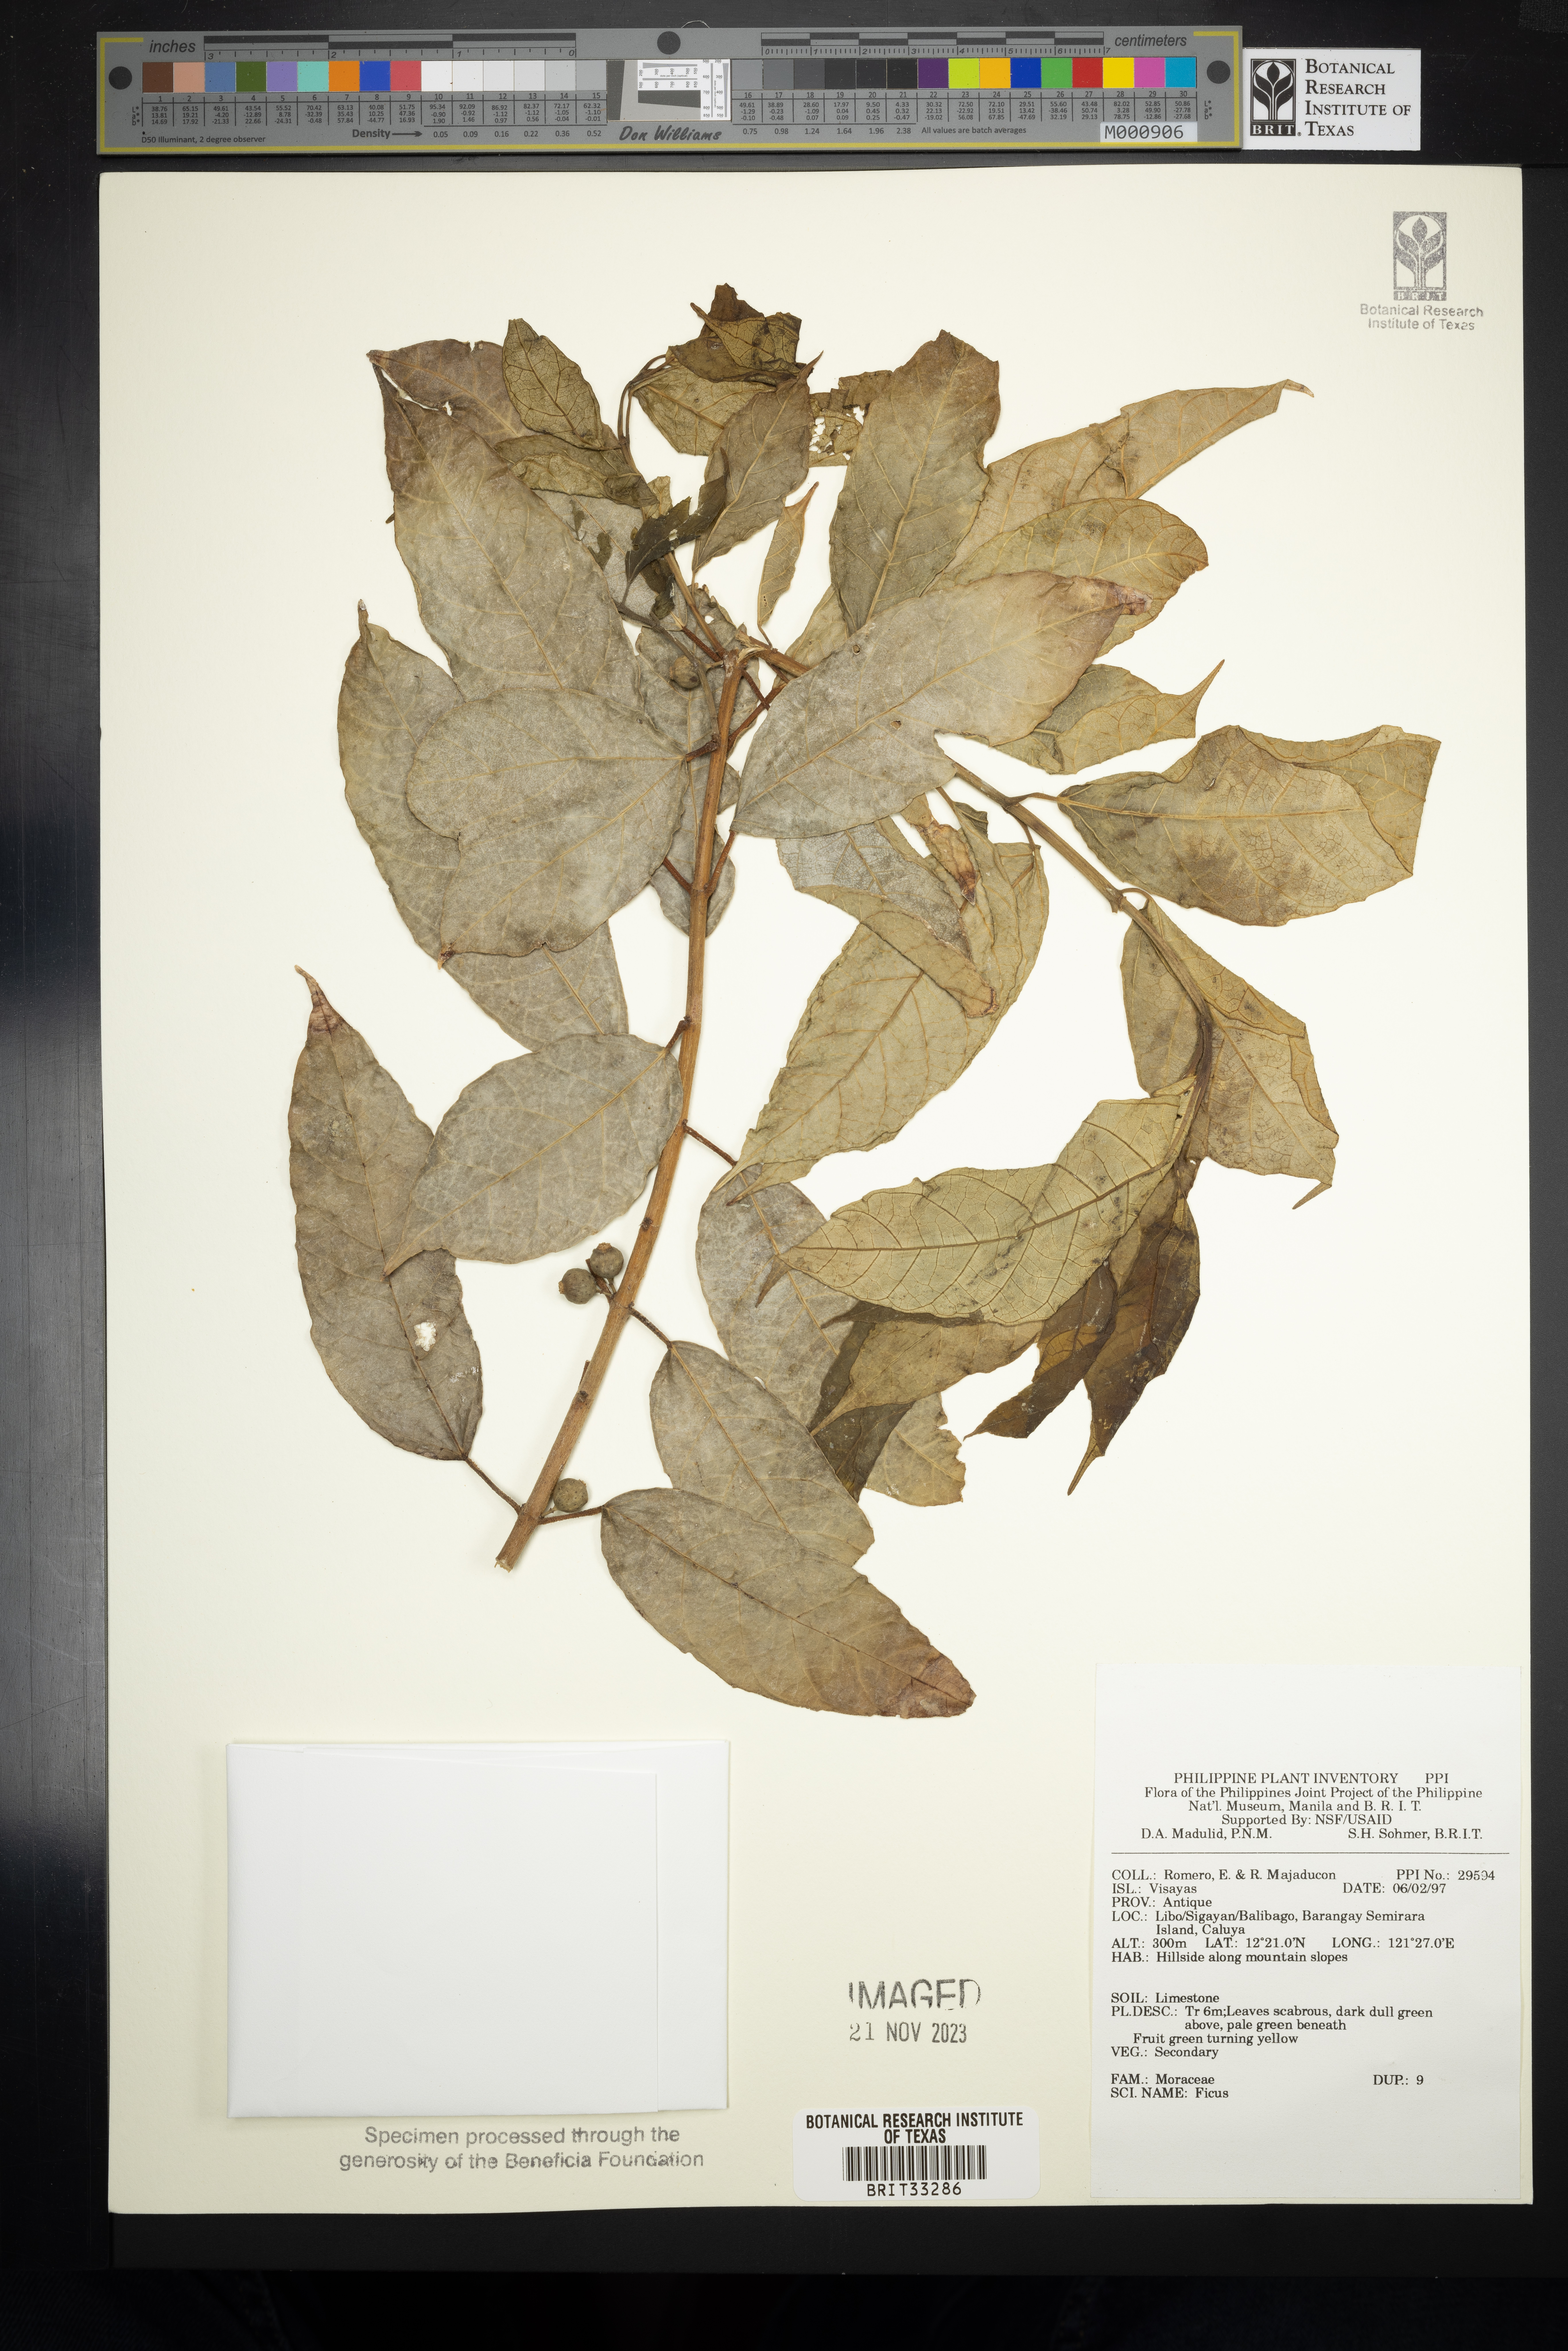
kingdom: Plantae
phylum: Tracheophyta
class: Magnoliopsida
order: Rosales
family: Moraceae
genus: Ficus
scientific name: Ficus
